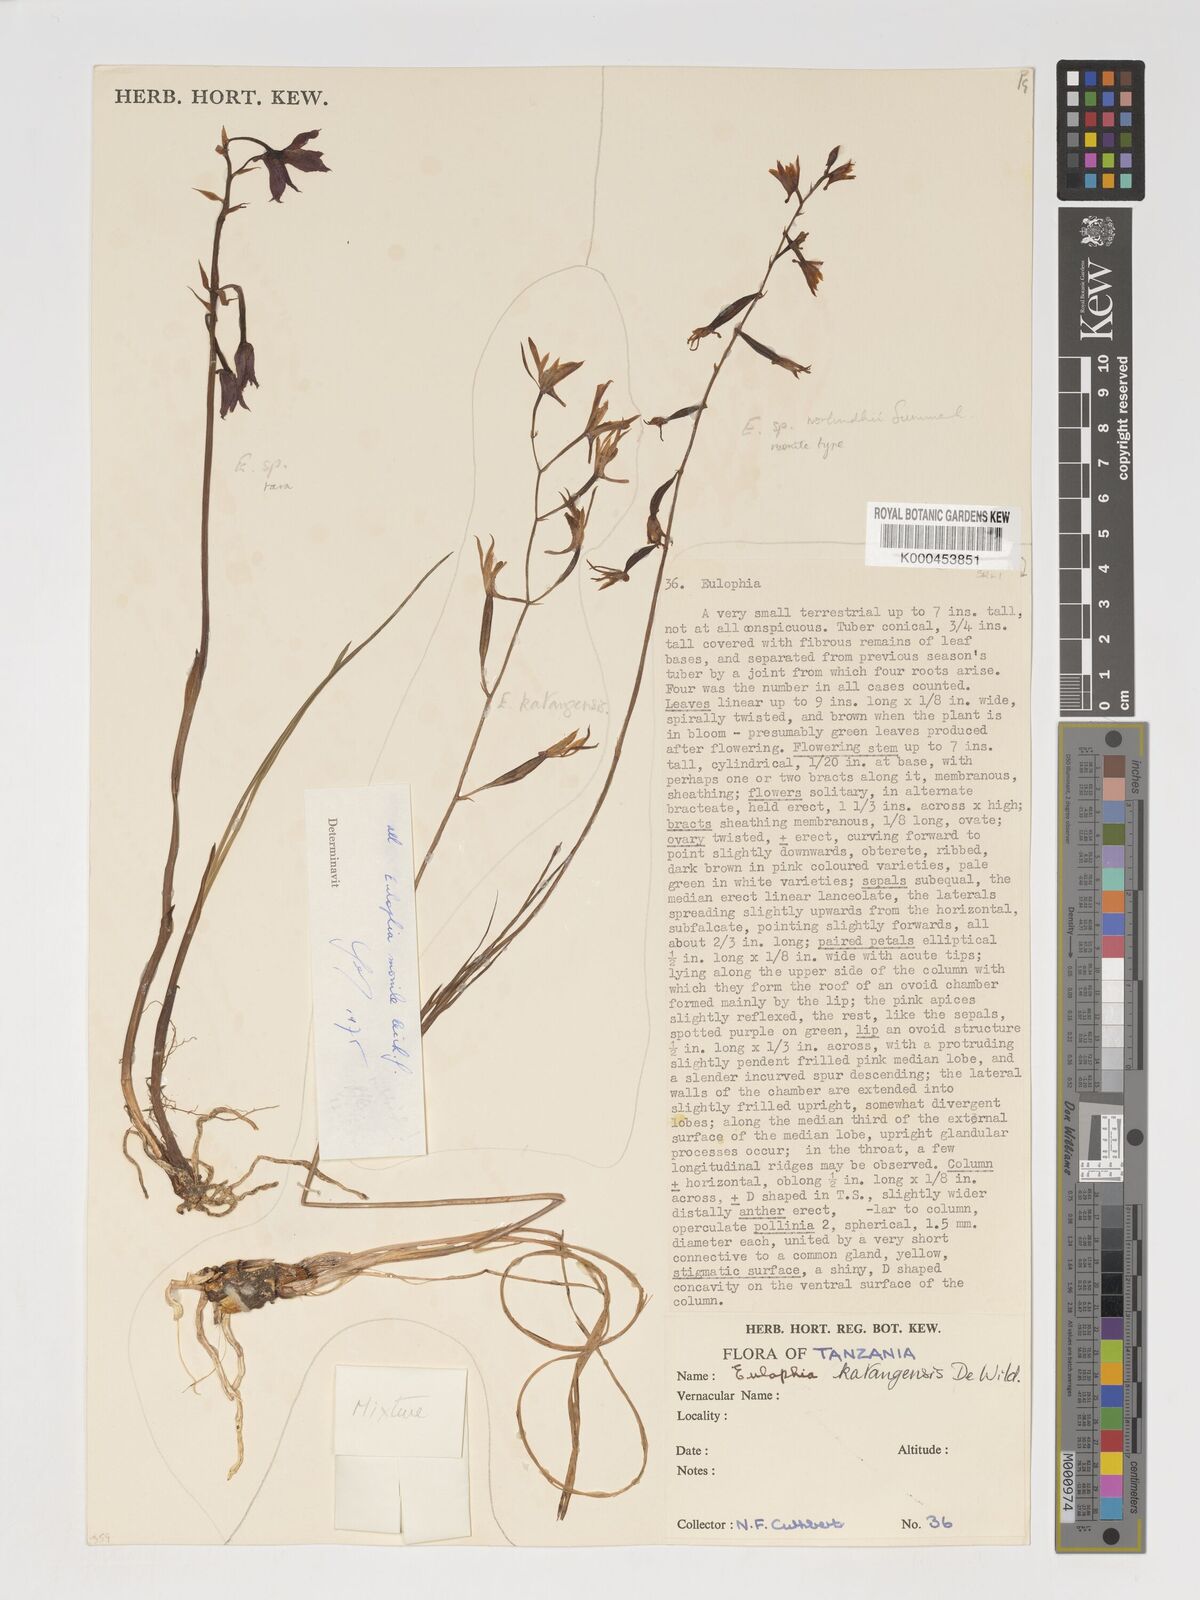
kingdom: Plantae
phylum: Tracheophyta
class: Liliopsida
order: Asparagales
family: Orchidaceae
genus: Eulophia
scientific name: Eulophia katangensis
